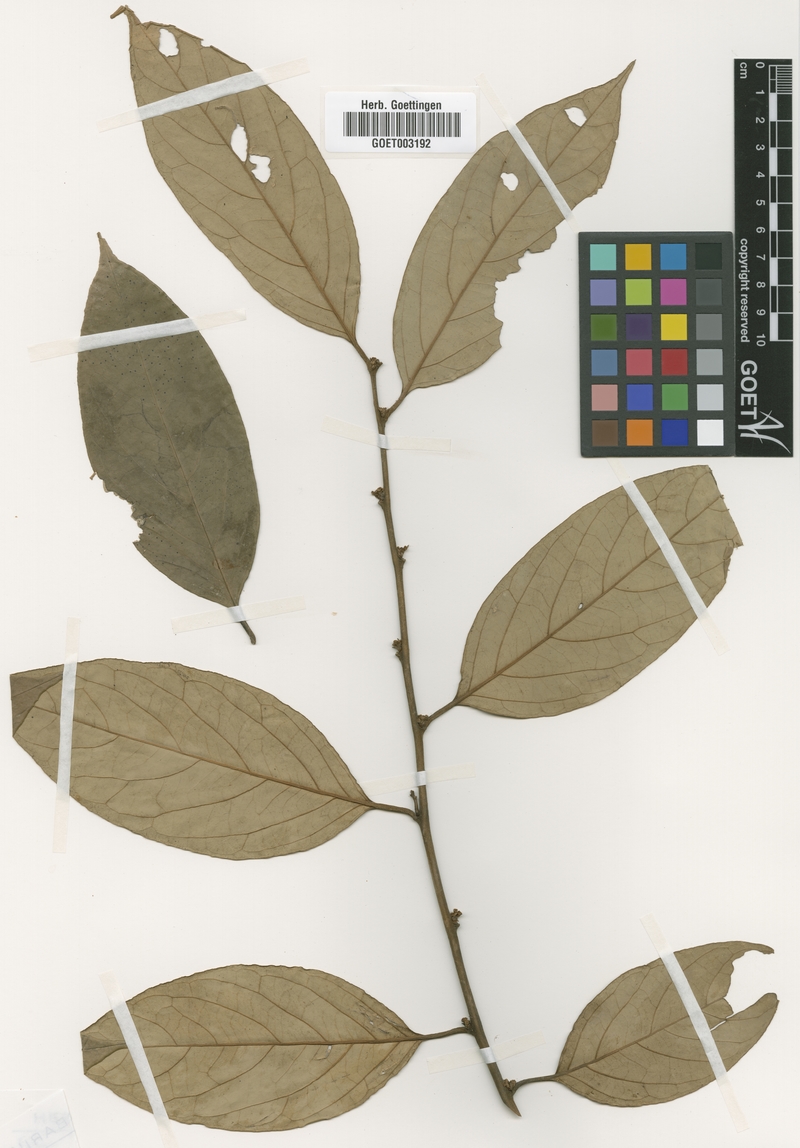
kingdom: Plantae
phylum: Tracheophyta
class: Magnoliopsida
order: Ericales
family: Ebenaceae
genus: Diospyros
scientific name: Diospyros kamerunensis
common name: African ebony
